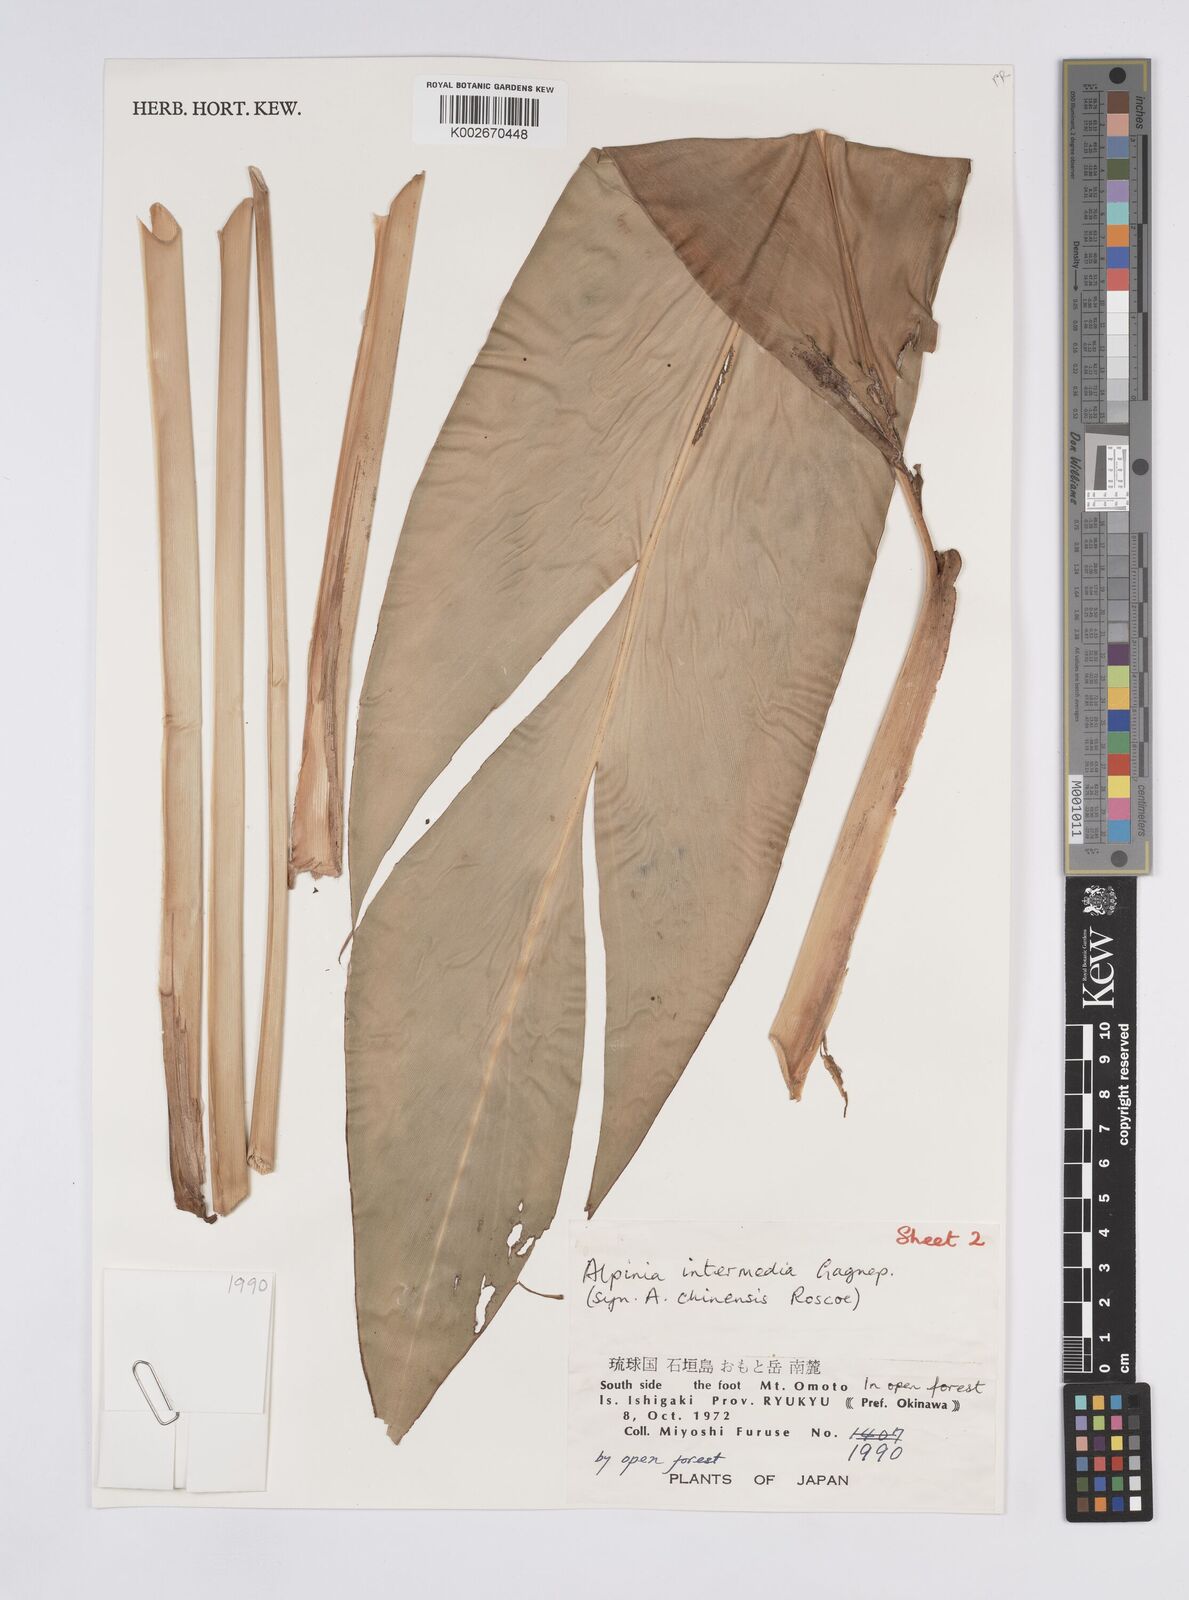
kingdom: Plantae
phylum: Tracheophyta
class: Liliopsida
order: Zingiberales
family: Zingiberaceae
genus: Alpinia
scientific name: Alpinia intermedia
